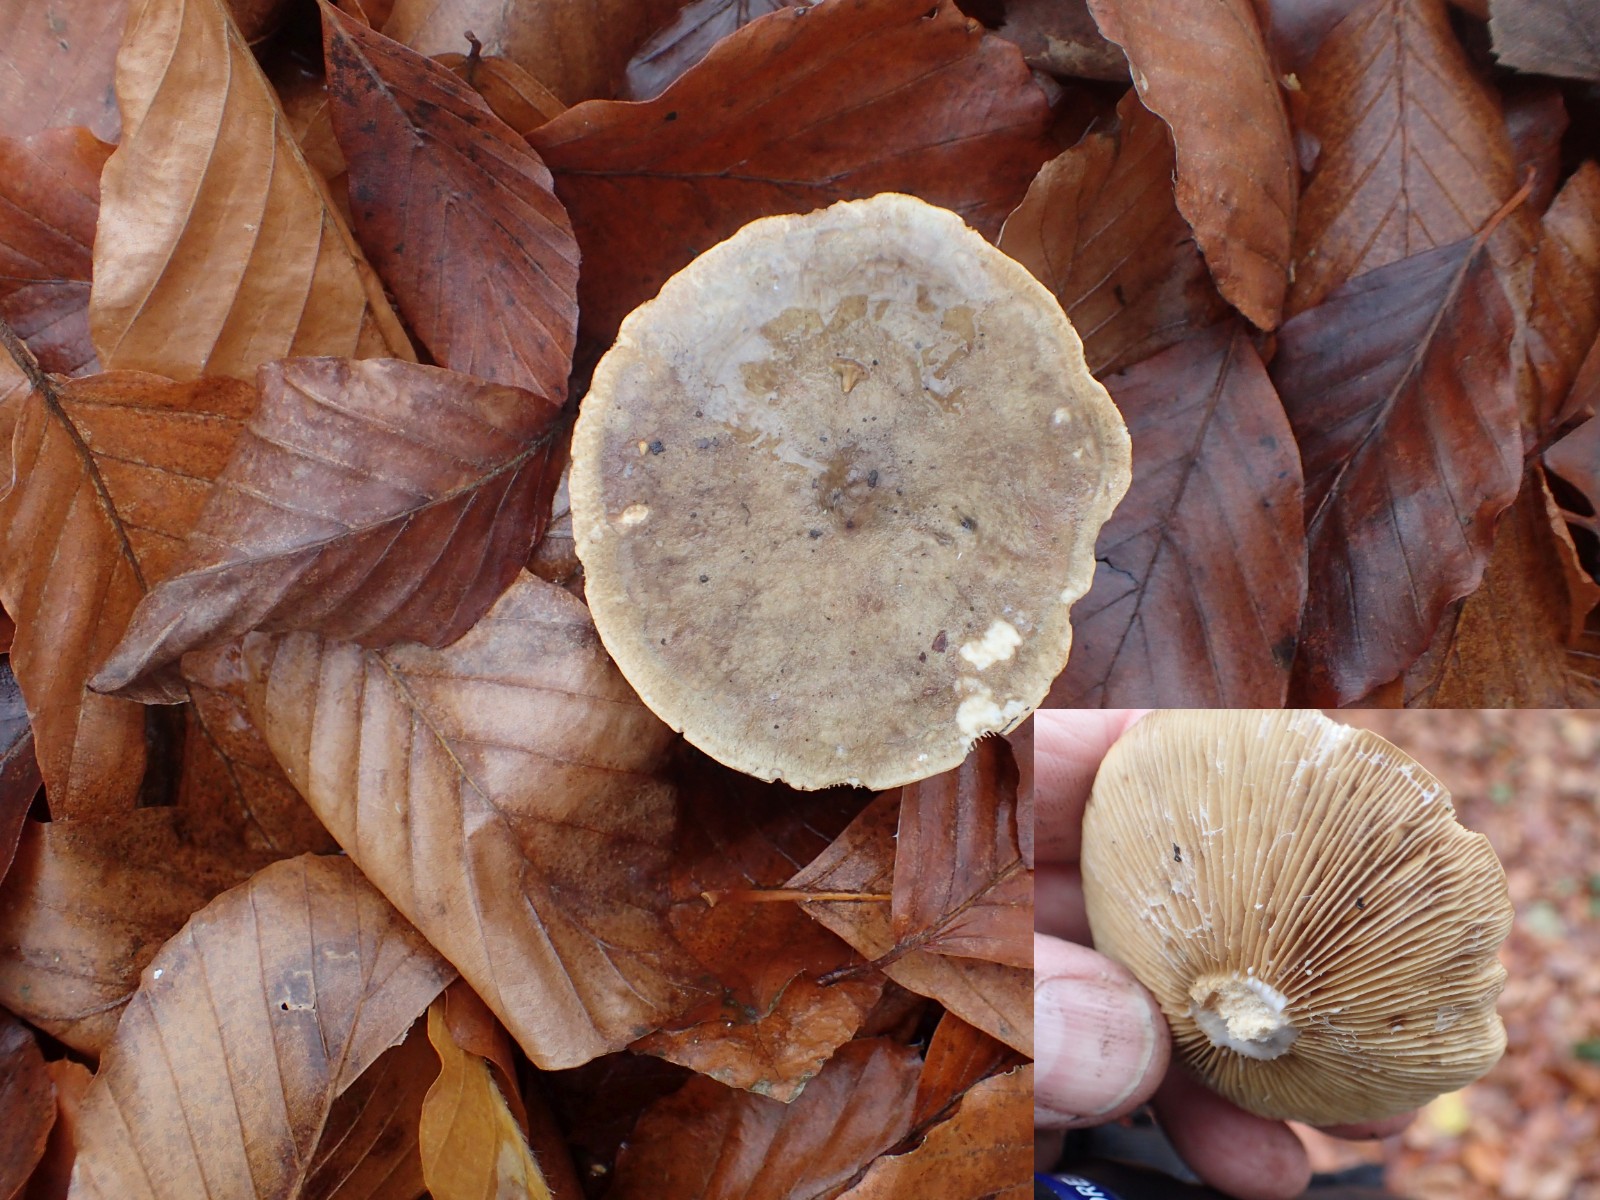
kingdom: Fungi
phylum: Basidiomycota
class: Agaricomycetes
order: Russulales
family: Russulaceae
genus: Lactarius
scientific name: Lactarius fluens
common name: lysrandet mælkehat
